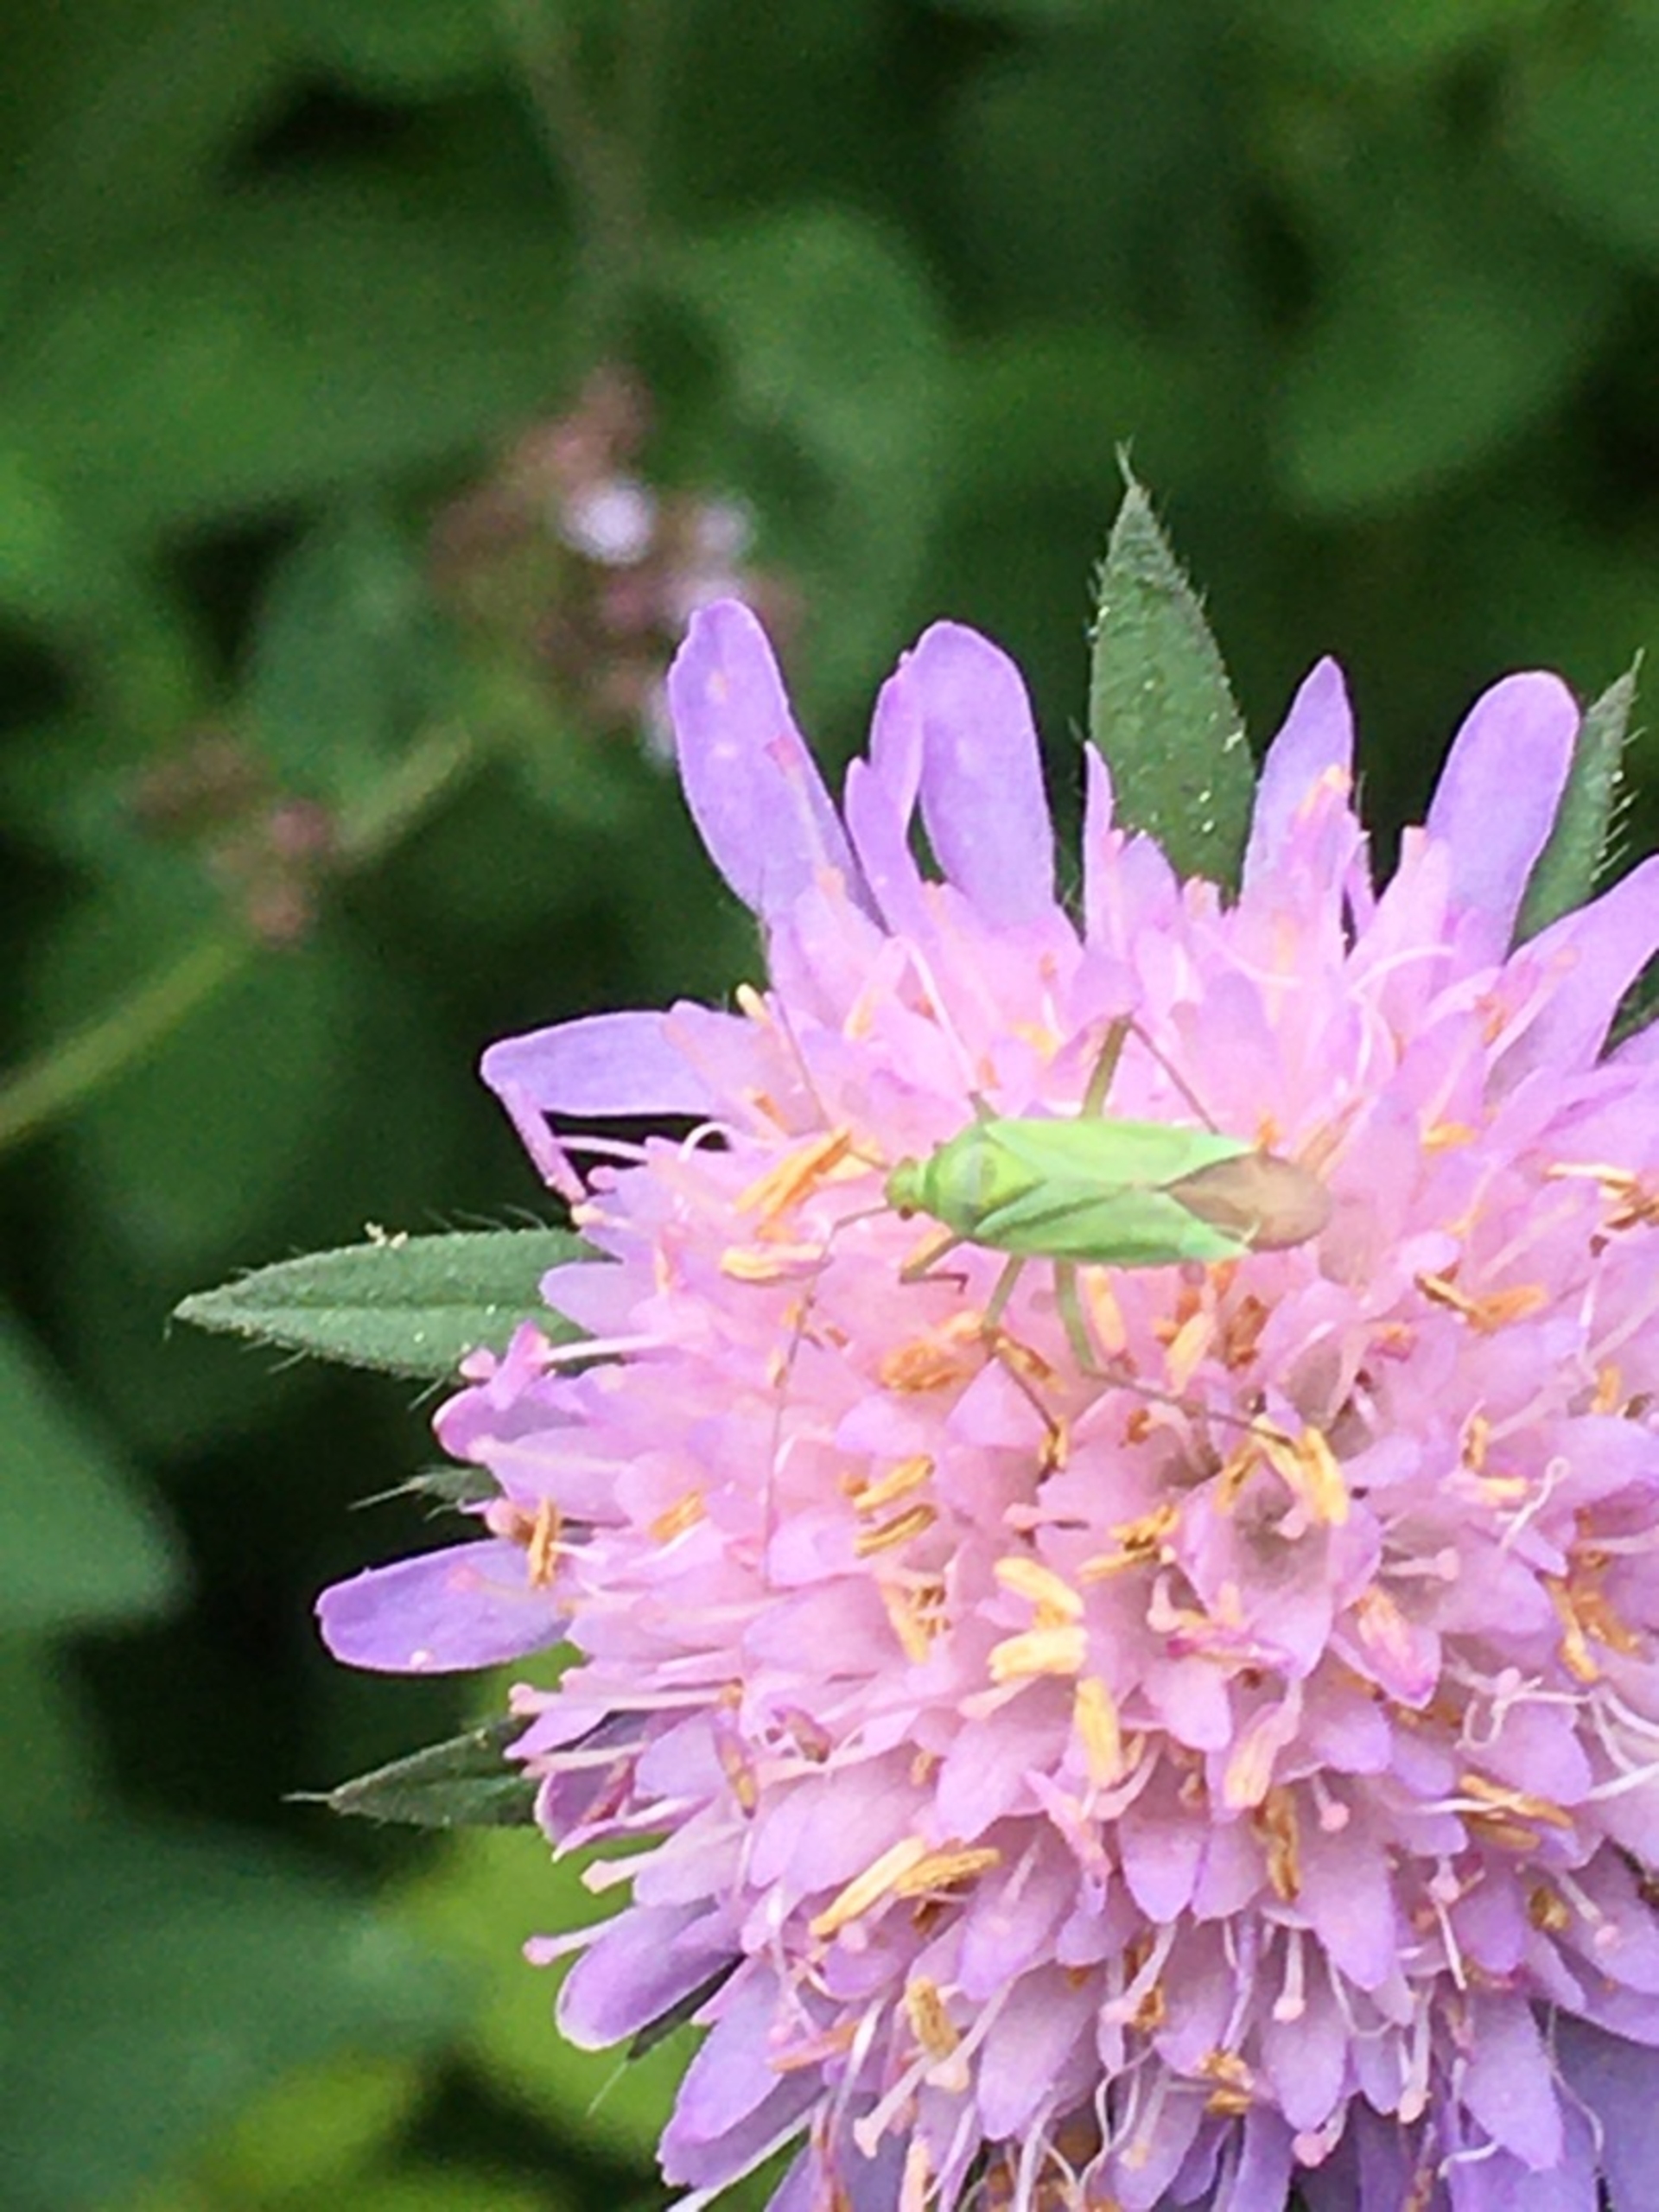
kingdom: Plantae
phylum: Tracheophyta
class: Magnoliopsida
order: Dipsacales
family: Caprifoliaceae
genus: Knautia
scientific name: Knautia arvensis
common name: Blåhat
